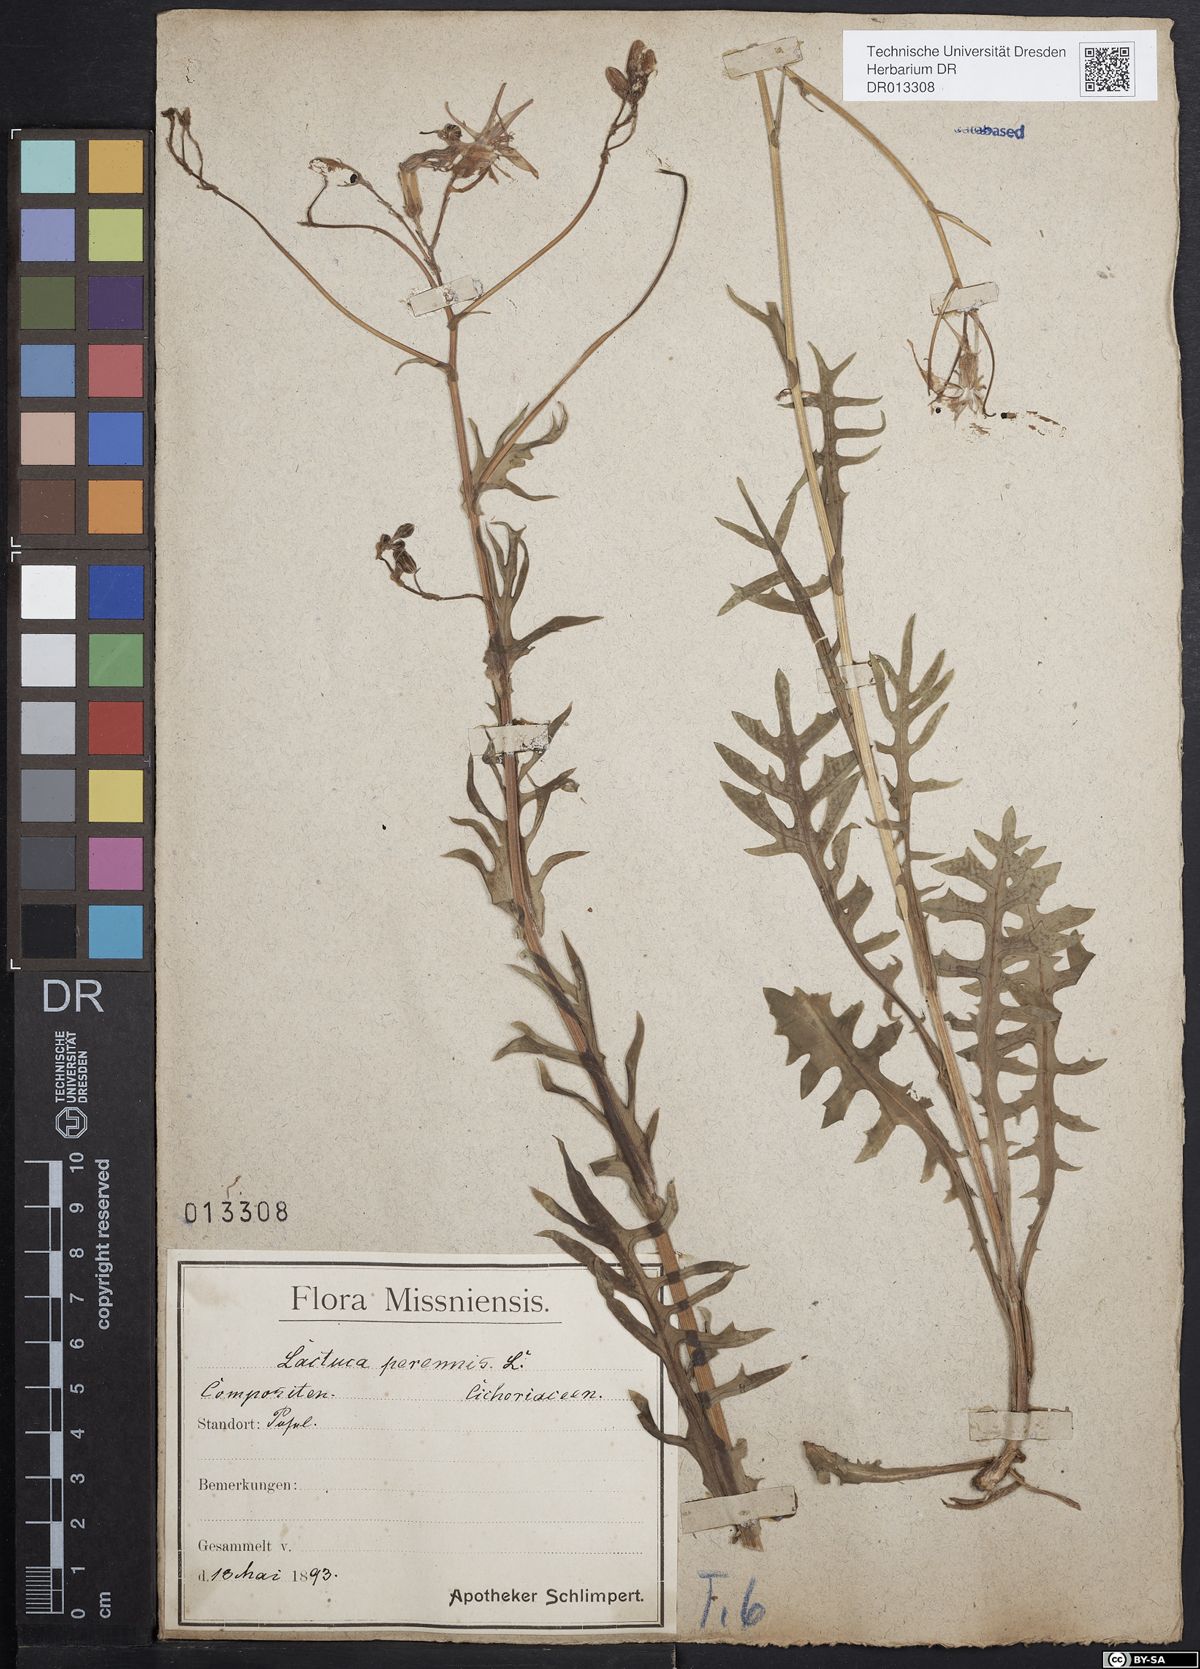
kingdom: Plantae
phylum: Tracheophyta
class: Magnoliopsida
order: Asterales
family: Asteraceae
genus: Lactuca
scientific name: Lactuca perennis
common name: Mountain lettuce
